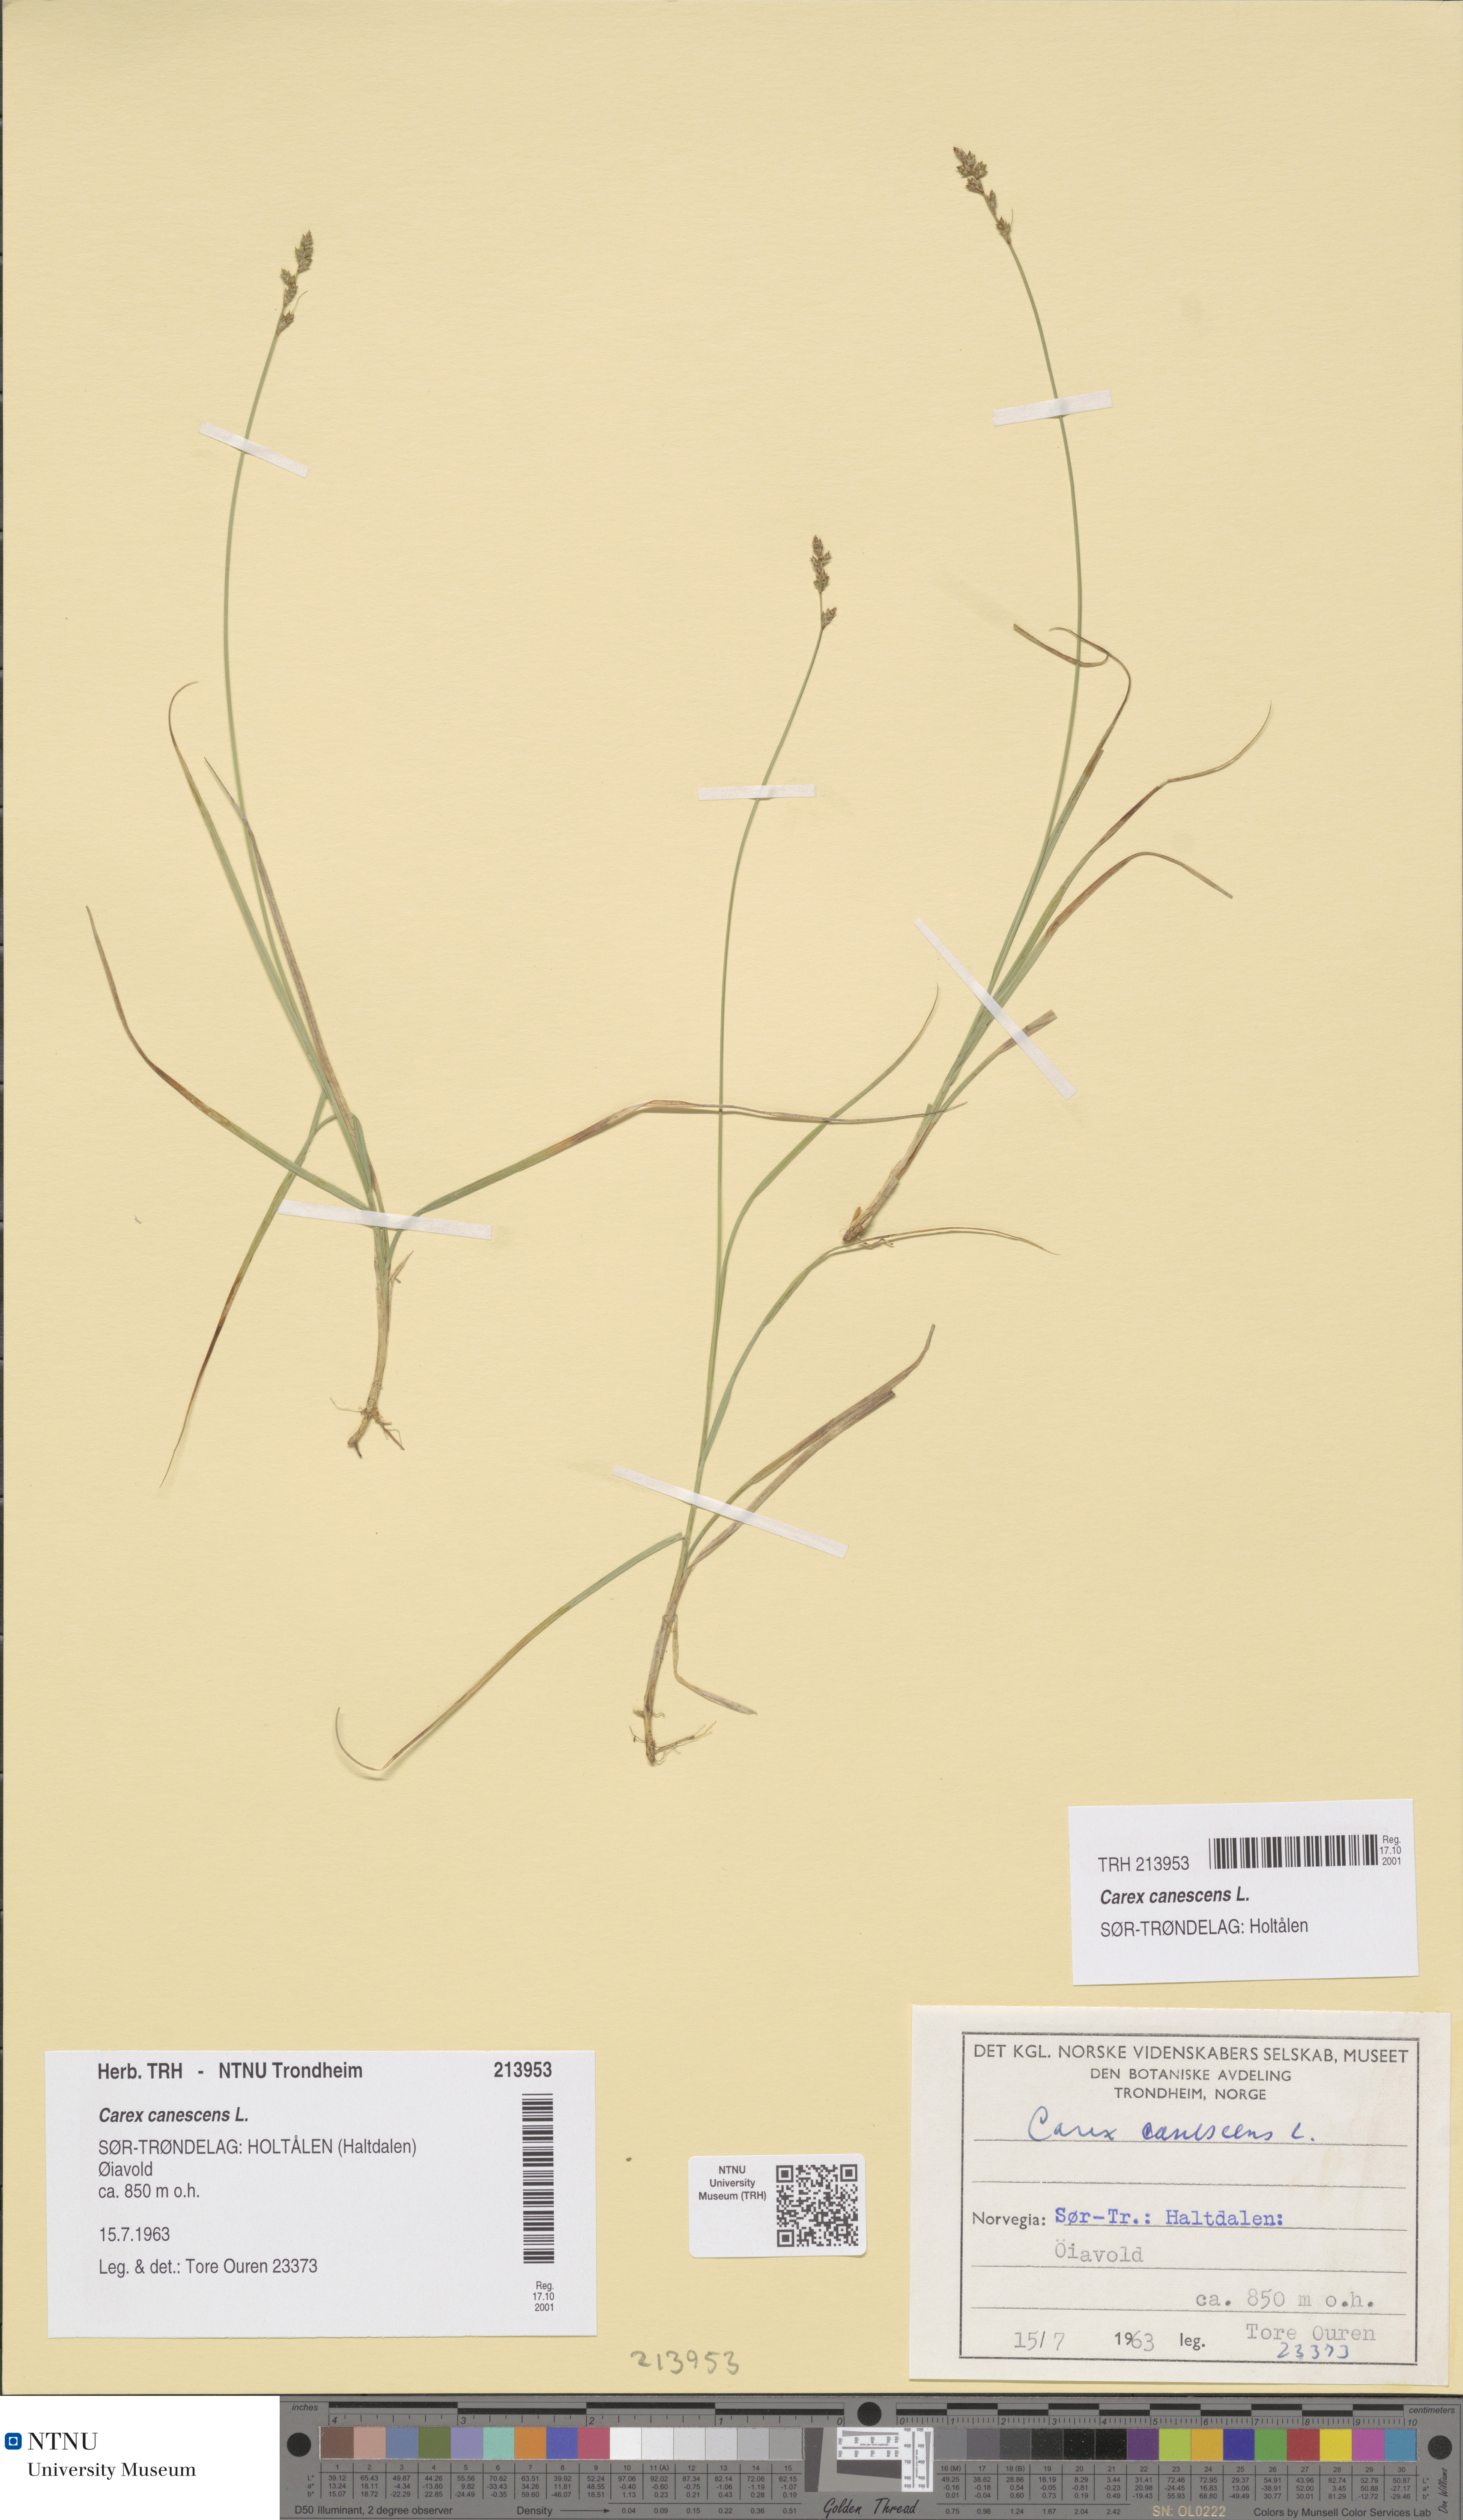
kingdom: Plantae
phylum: Tracheophyta
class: Liliopsida
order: Poales
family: Cyperaceae
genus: Carex
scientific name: Carex canescens
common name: White sedge
